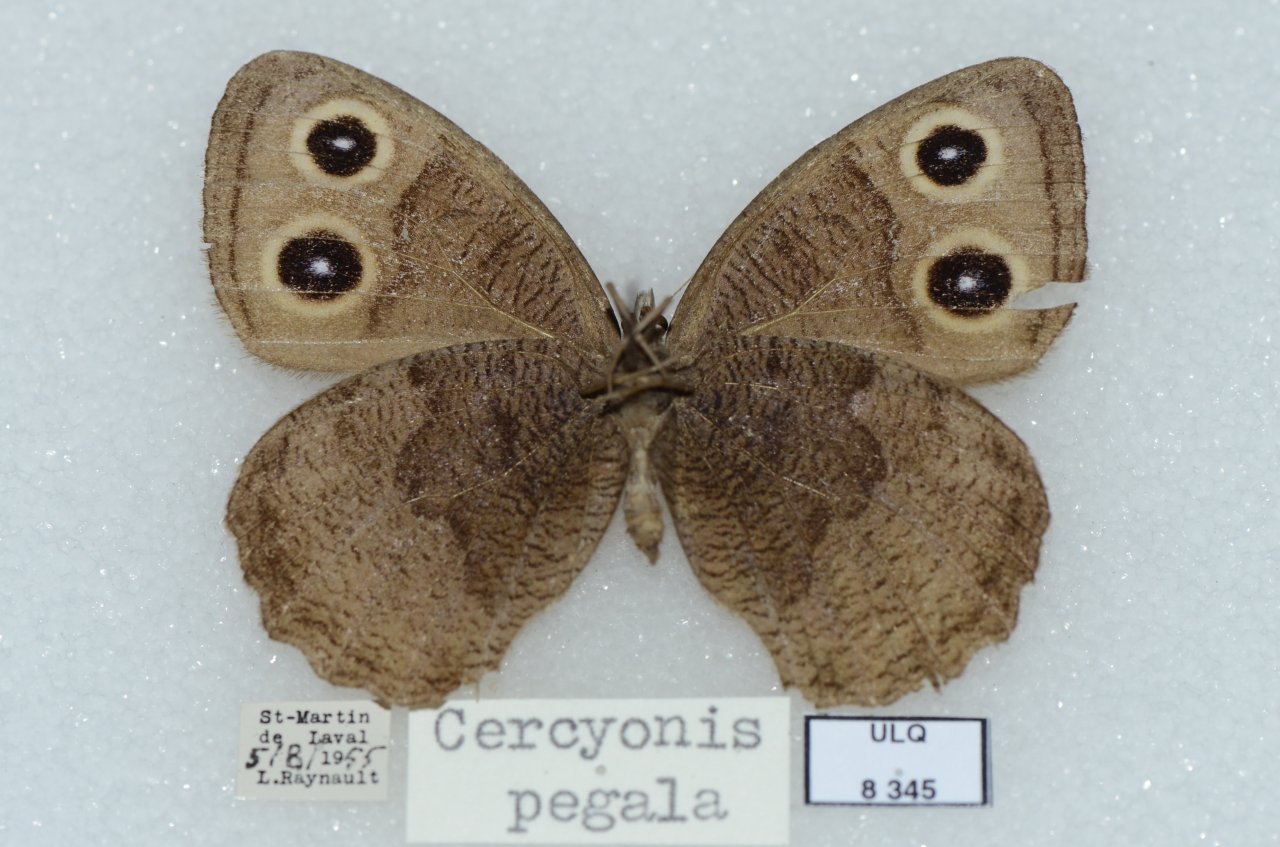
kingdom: Animalia
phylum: Arthropoda
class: Insecta
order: Lepidoptera
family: Nymphalidae
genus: Cercyonis
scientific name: Cercyonis pegala
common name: Common Wood-Nymph
